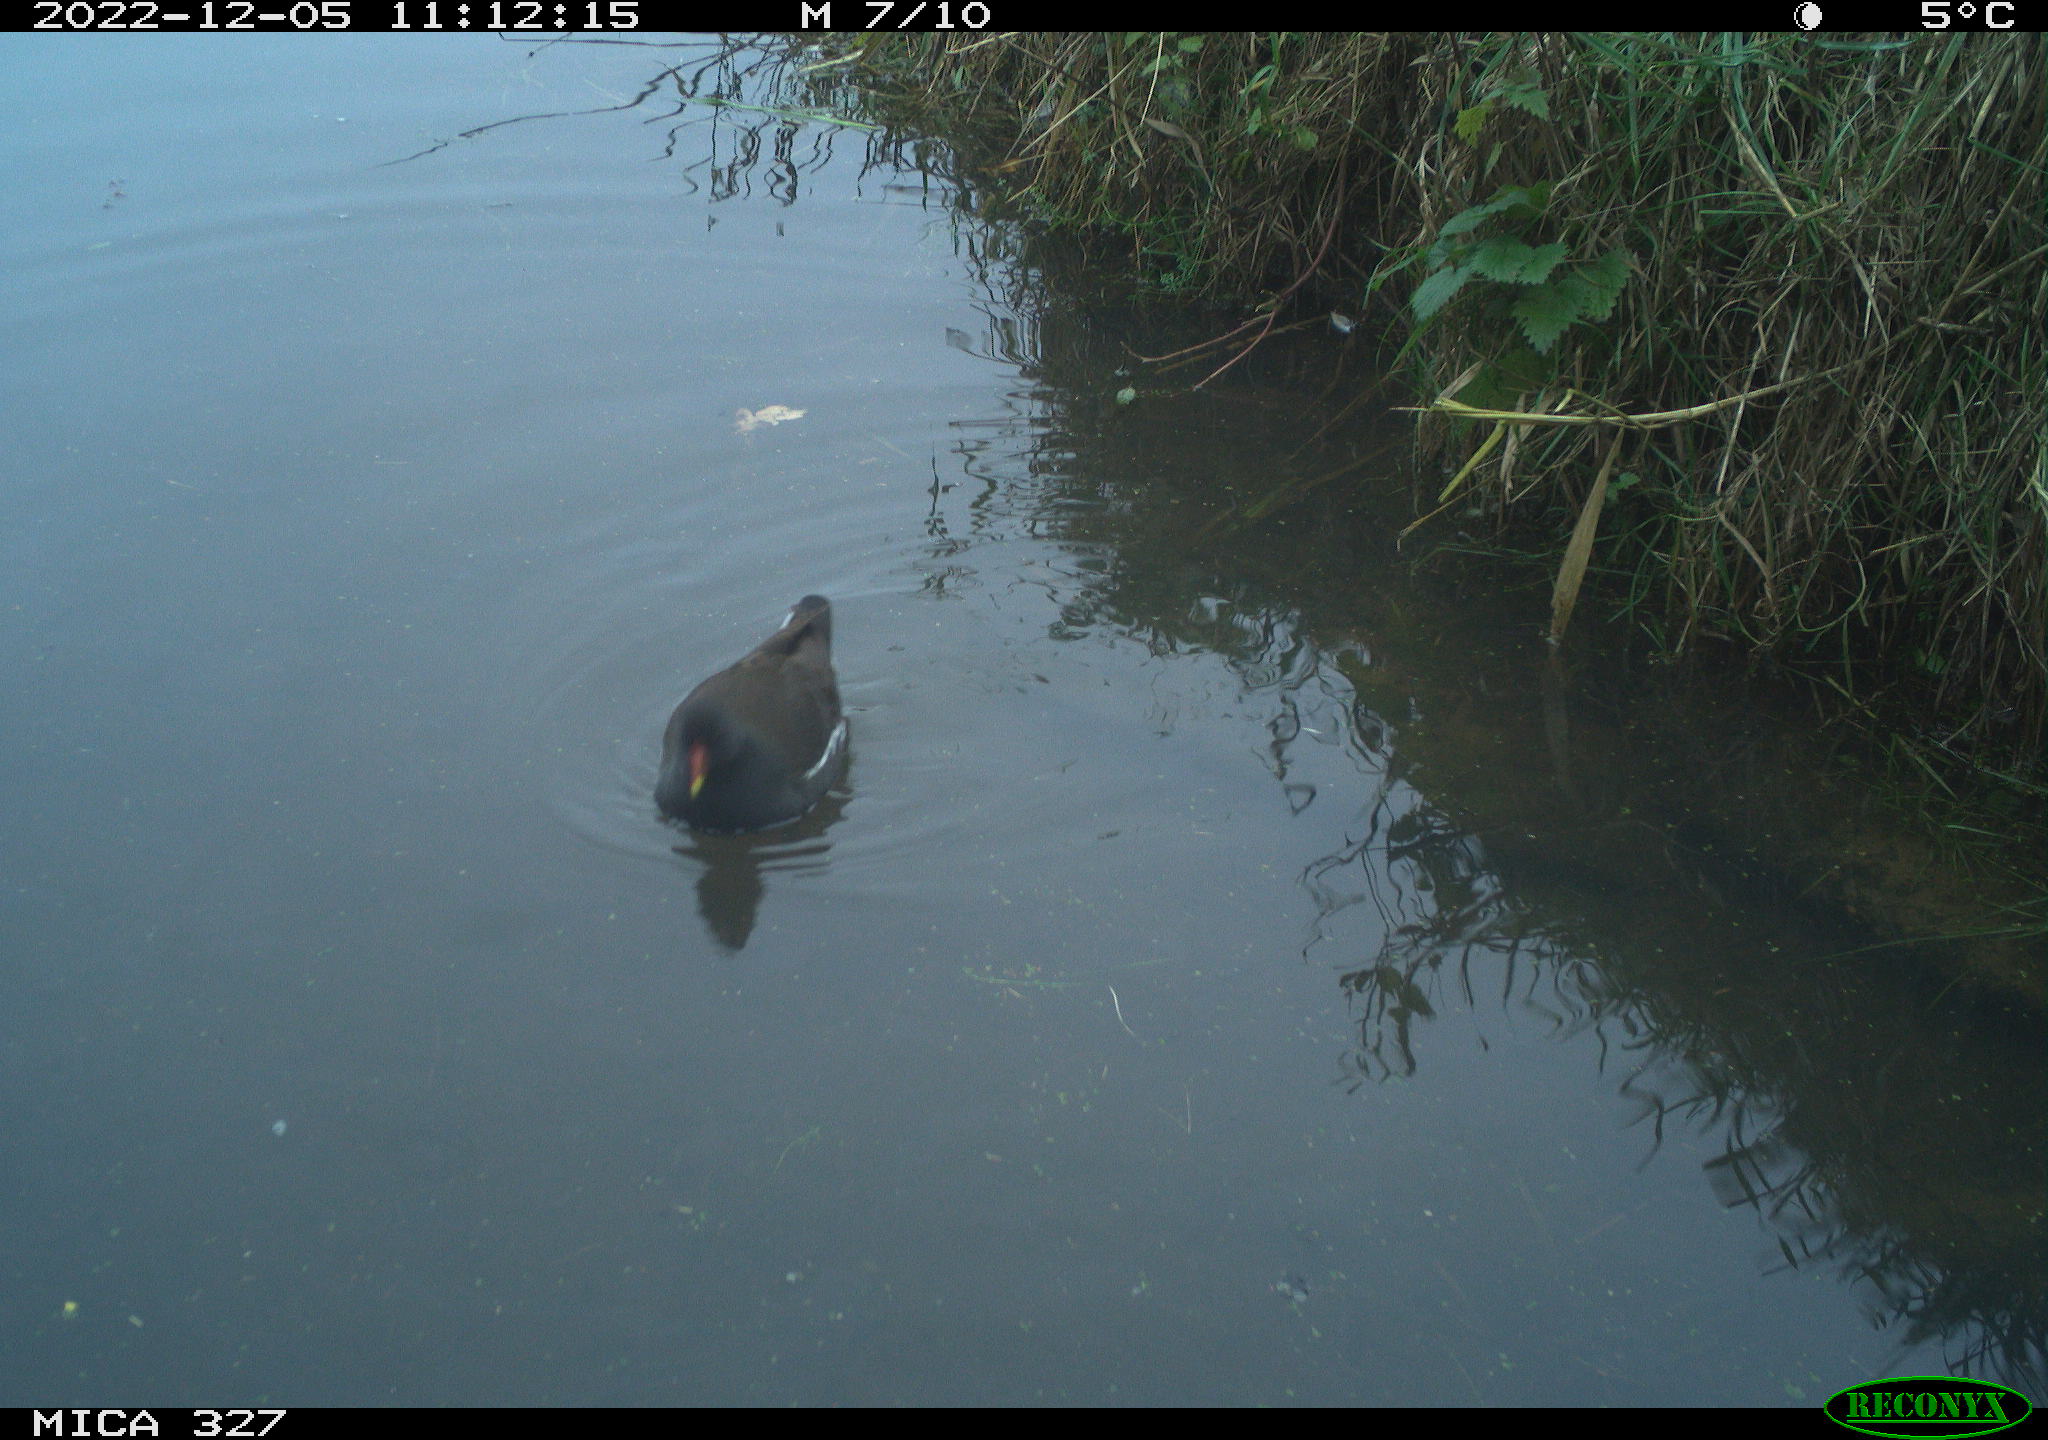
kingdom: Animalia
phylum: Chordata
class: Aves
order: Gruiformes
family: Rallidae
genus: Gallinula
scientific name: Gallinula chloropus
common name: Common moorhen
